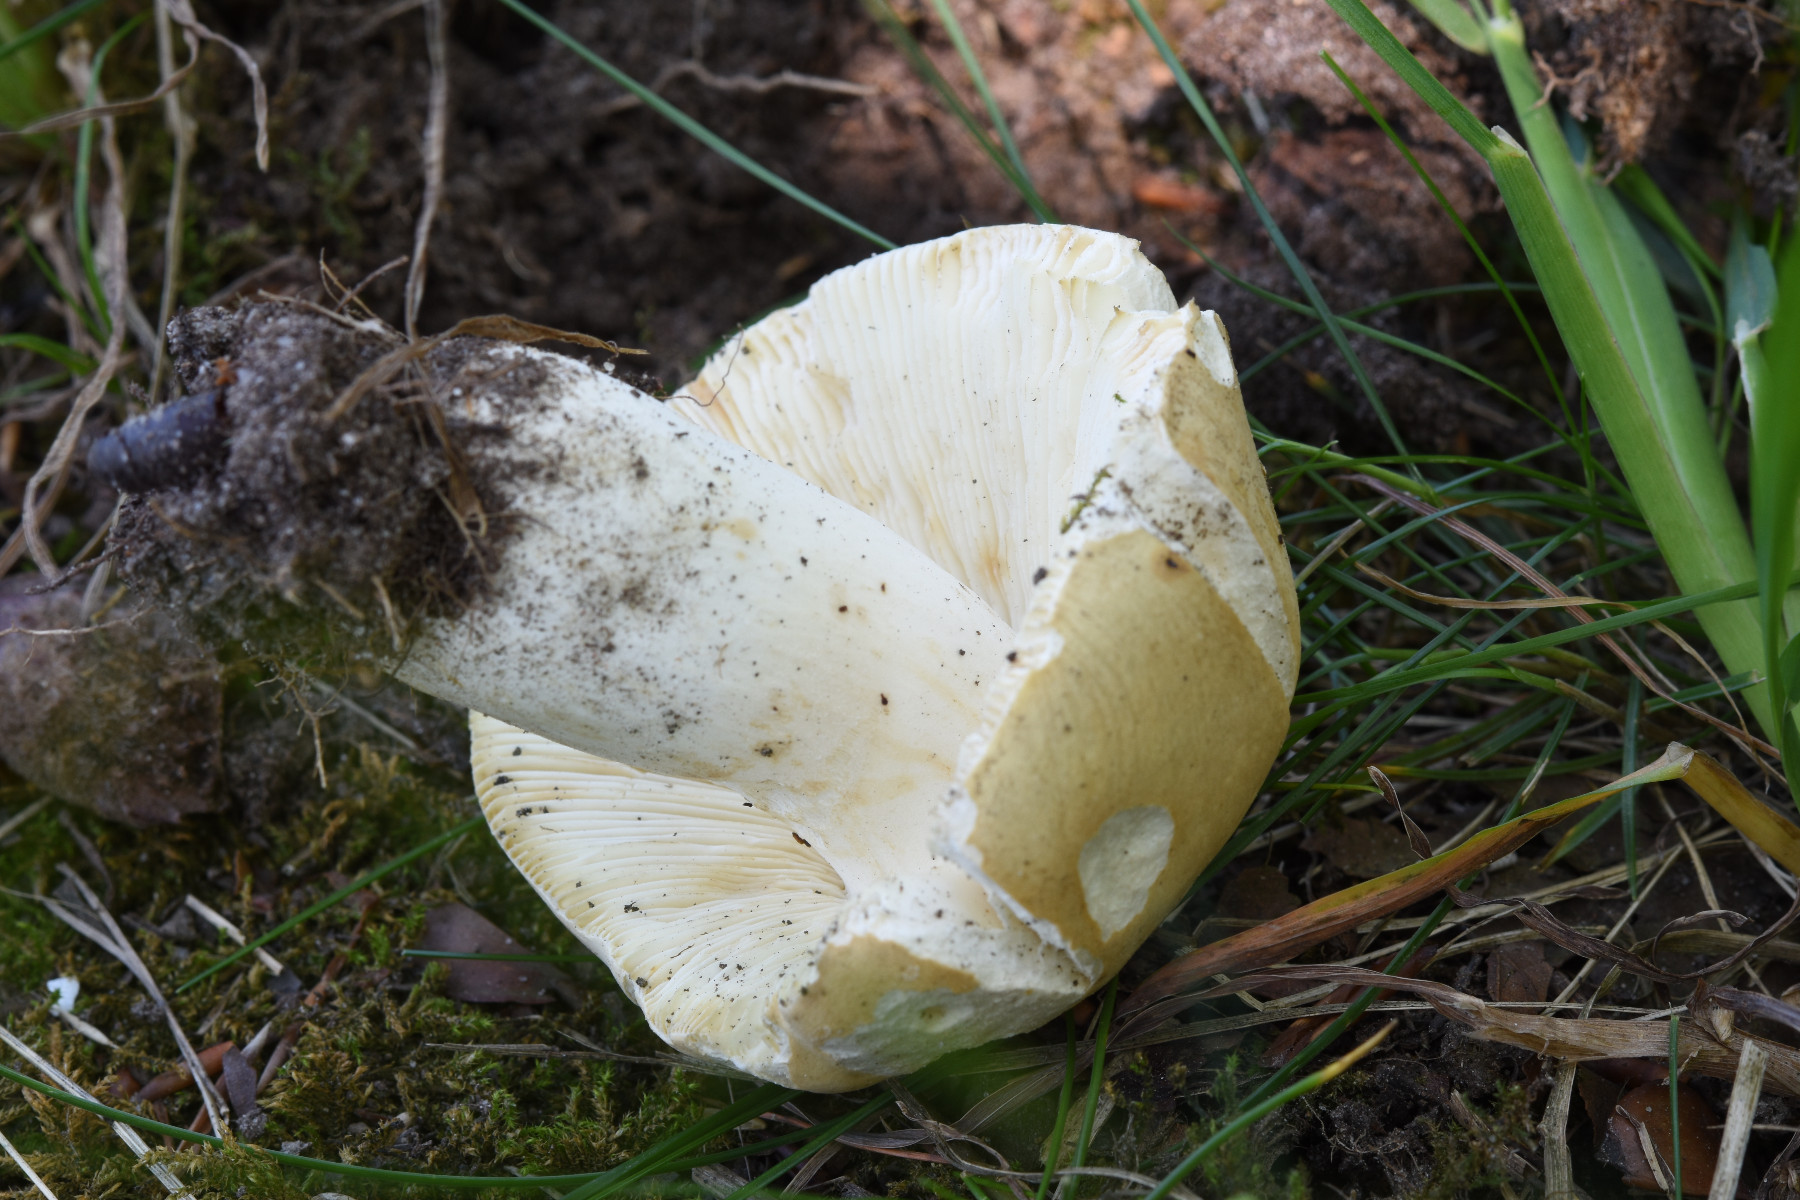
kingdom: Fungi
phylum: Basidiomycota
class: Agaricomycetes
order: Russulales
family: Russulaceae
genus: Russula
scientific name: Russula rosea
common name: fastkødet skørhat
